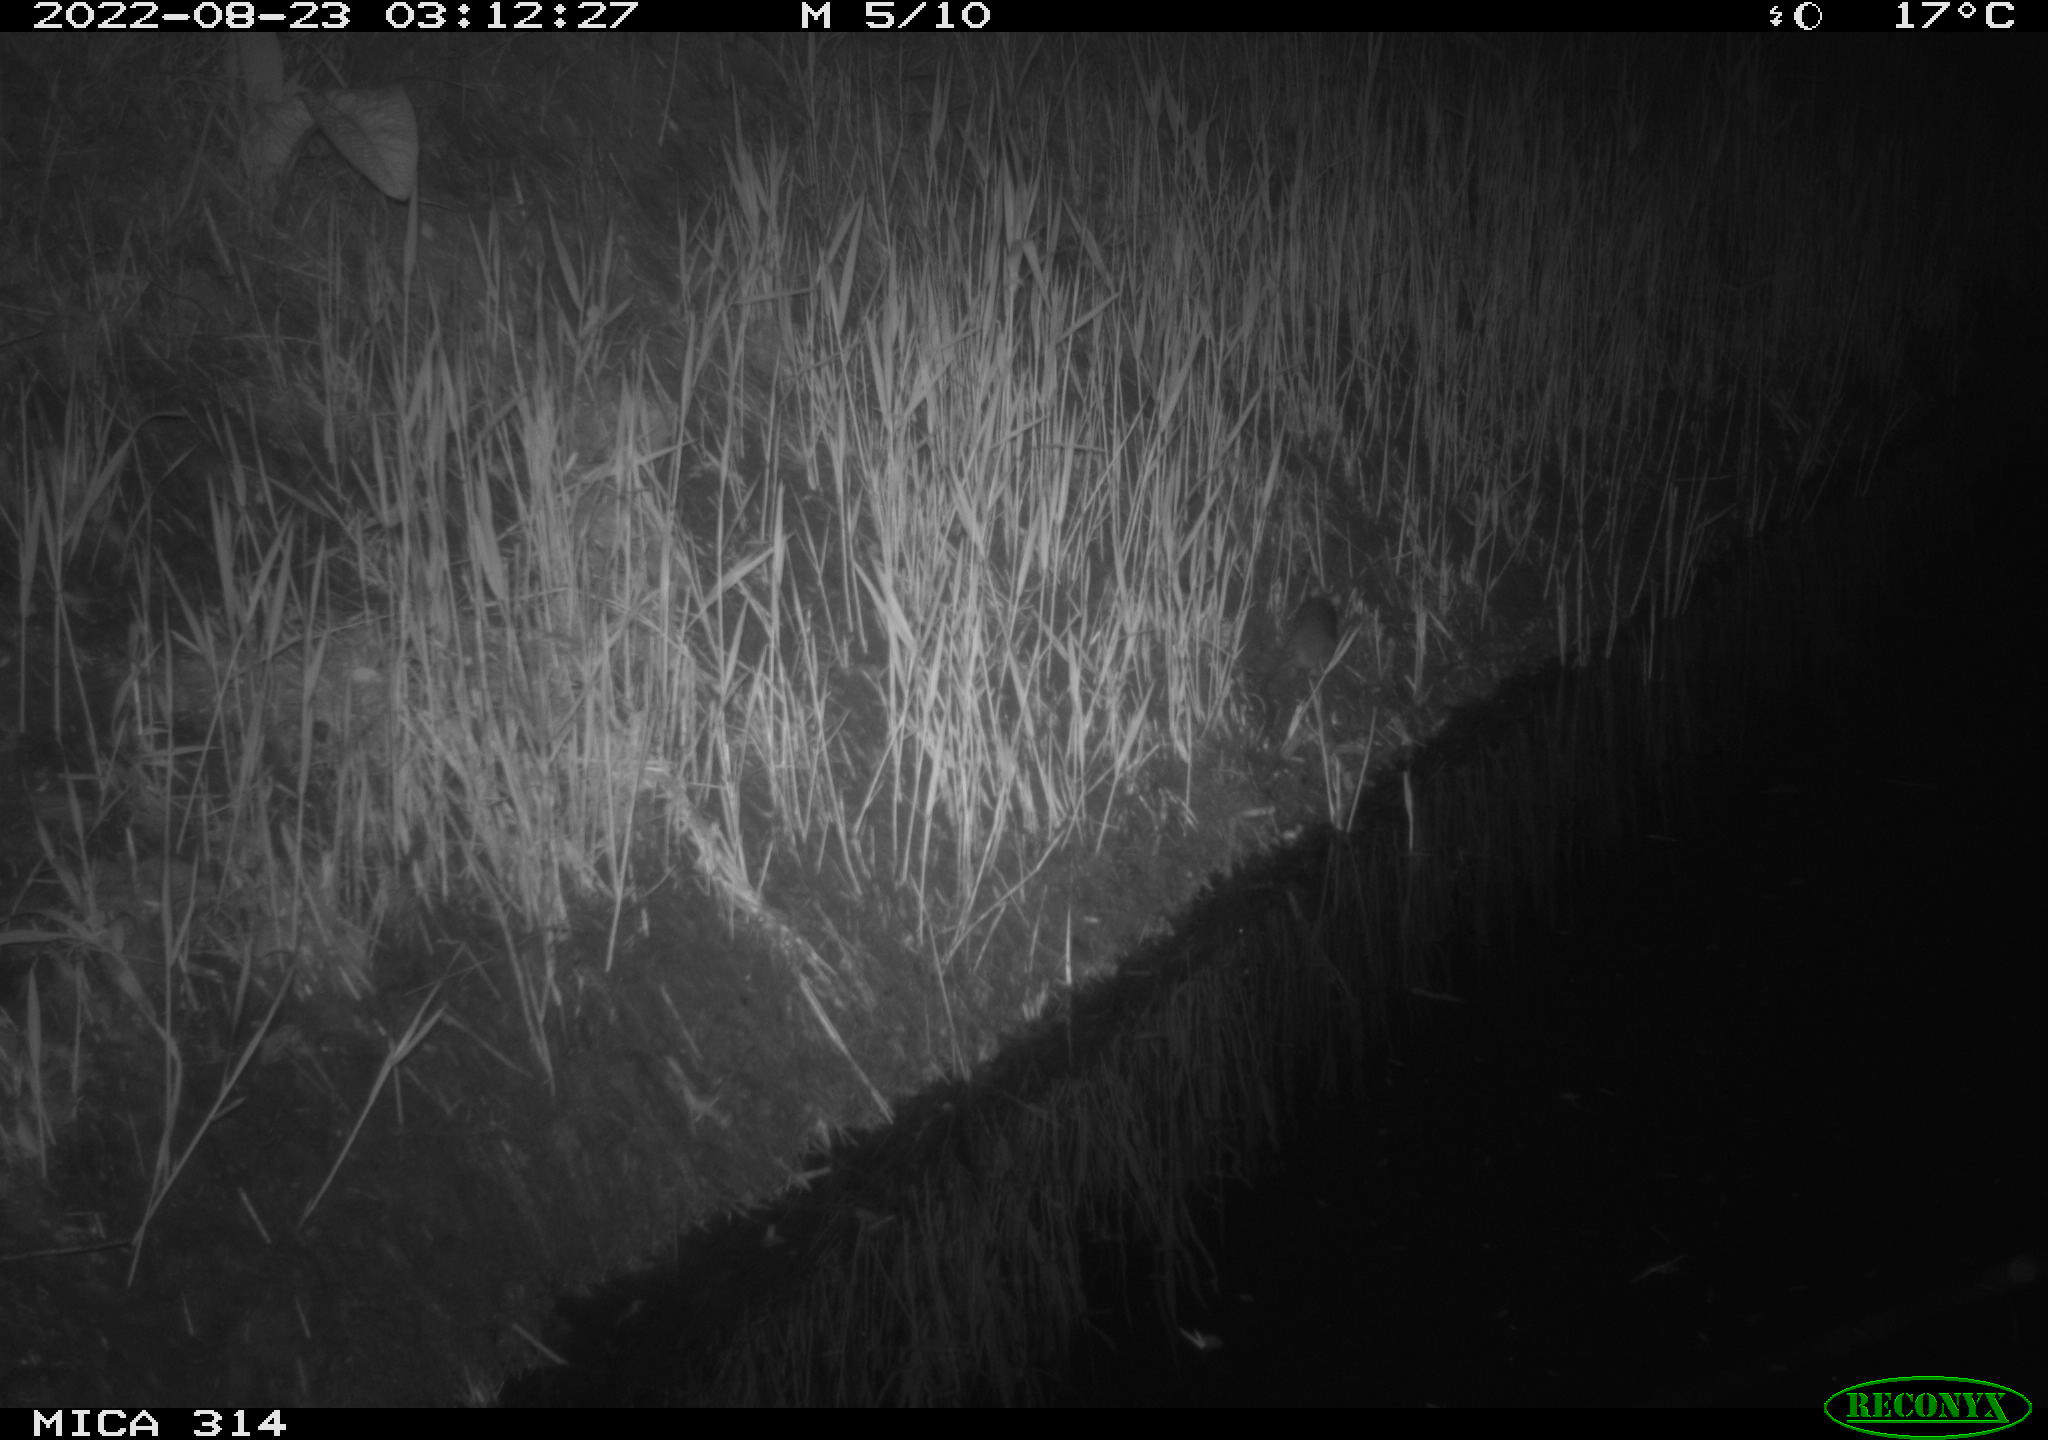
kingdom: Animalia
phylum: Chordata
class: Mammalia
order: Rodentia
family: Muridae
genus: Rattus
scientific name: Rattus norvegicus
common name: Brown rat
